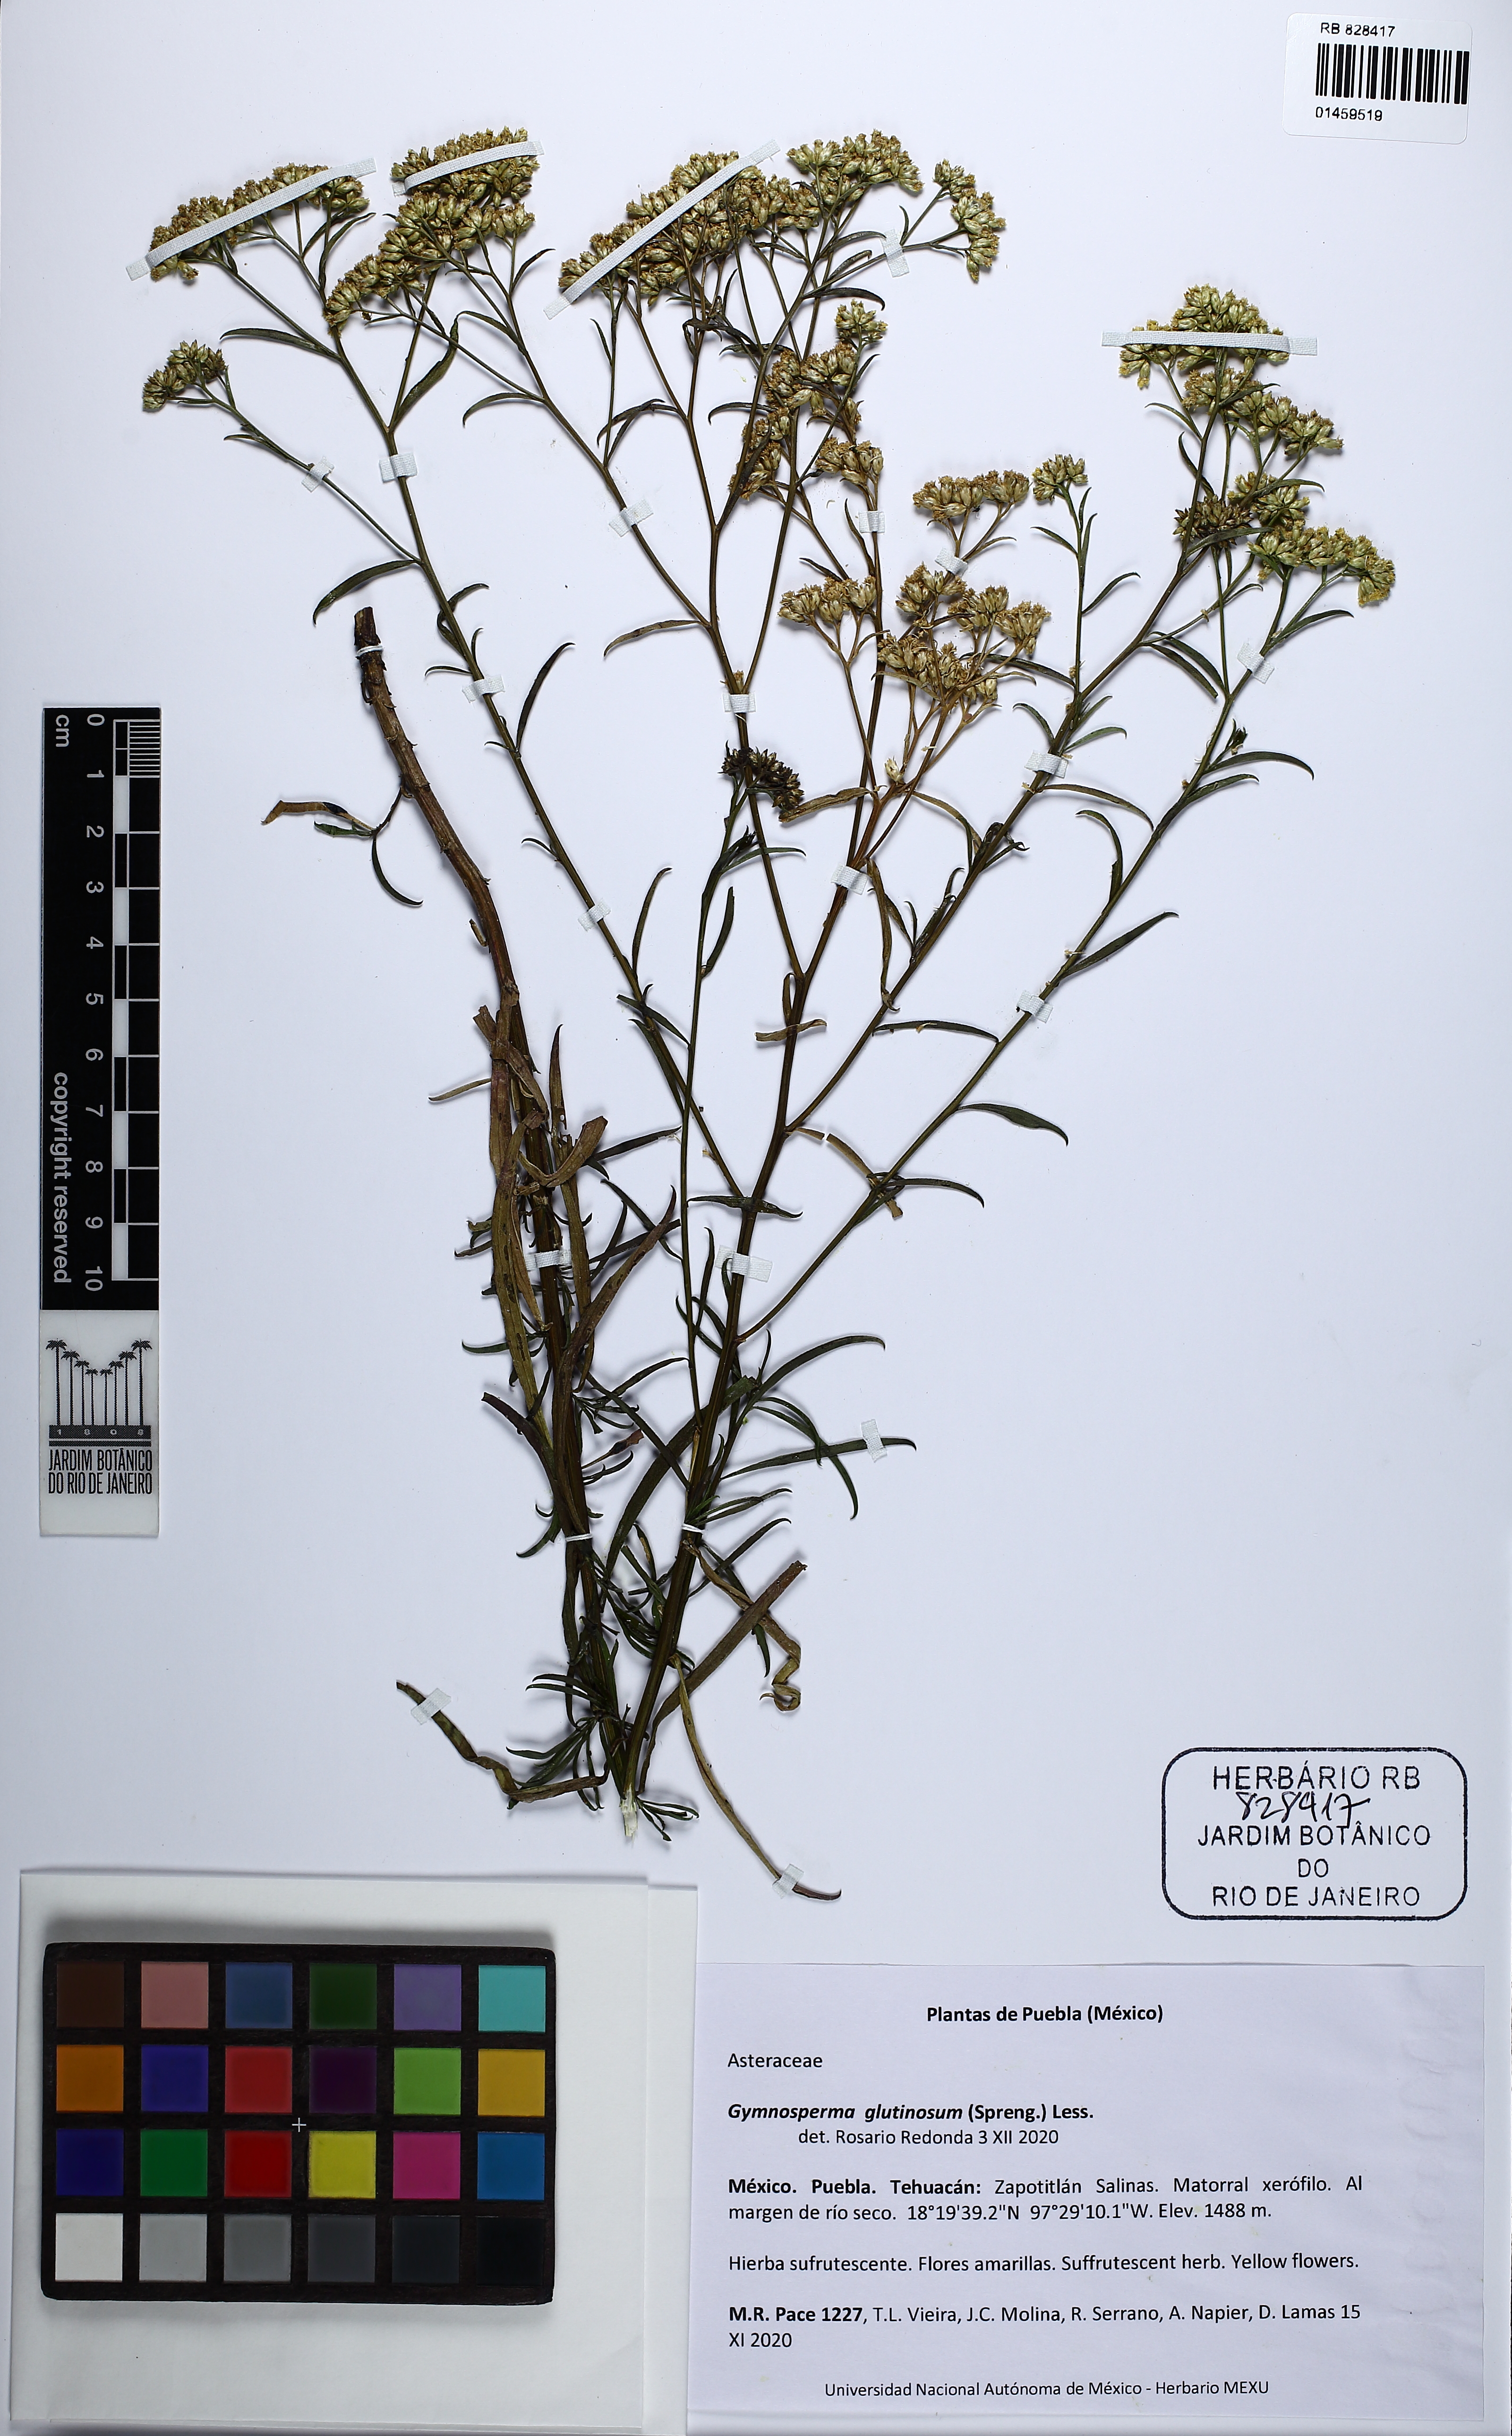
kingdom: Plantae
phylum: Tracheophyta
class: Magnoliopsida
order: Asterales
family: Asteraceae
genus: Gymnosperma
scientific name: Gymnosperma glutinosum
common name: Gumhead
